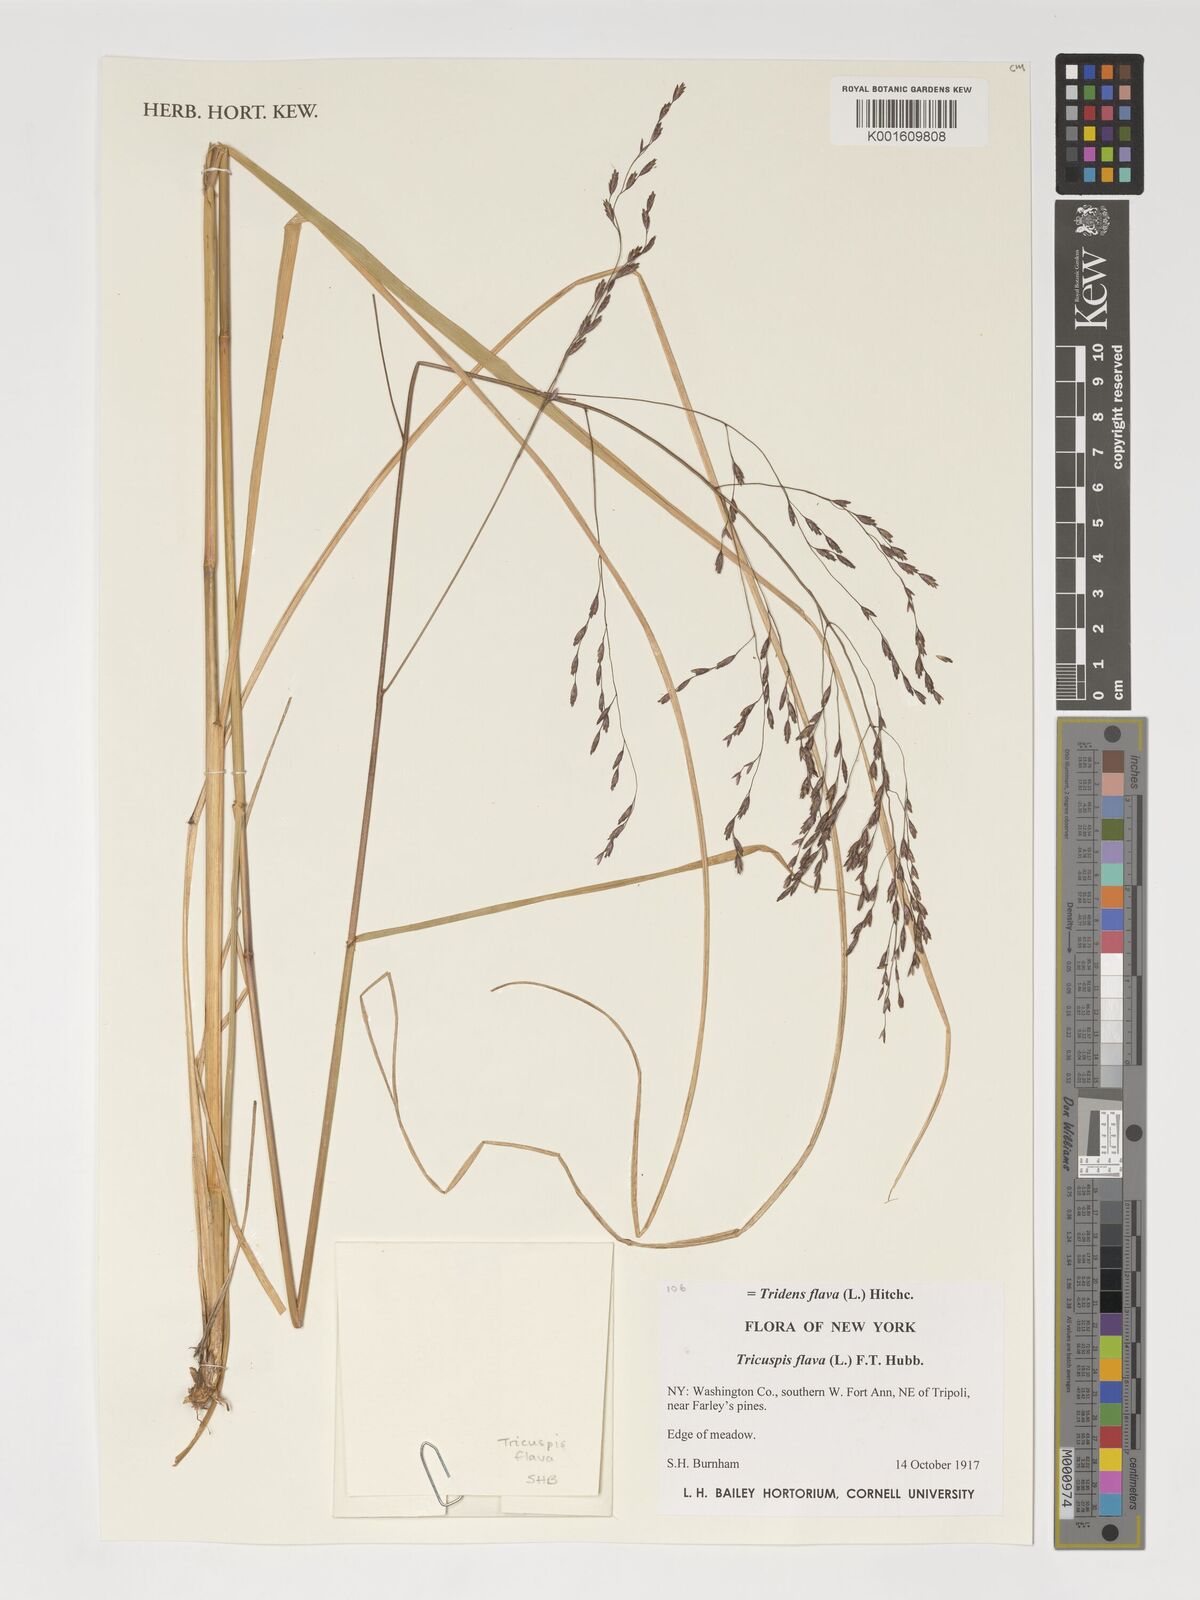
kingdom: Plantae
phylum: Tracheophyta
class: Liliopsida
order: Poales
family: Poaceae
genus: Tridens
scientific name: Tridens flavus
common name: Purpletop
